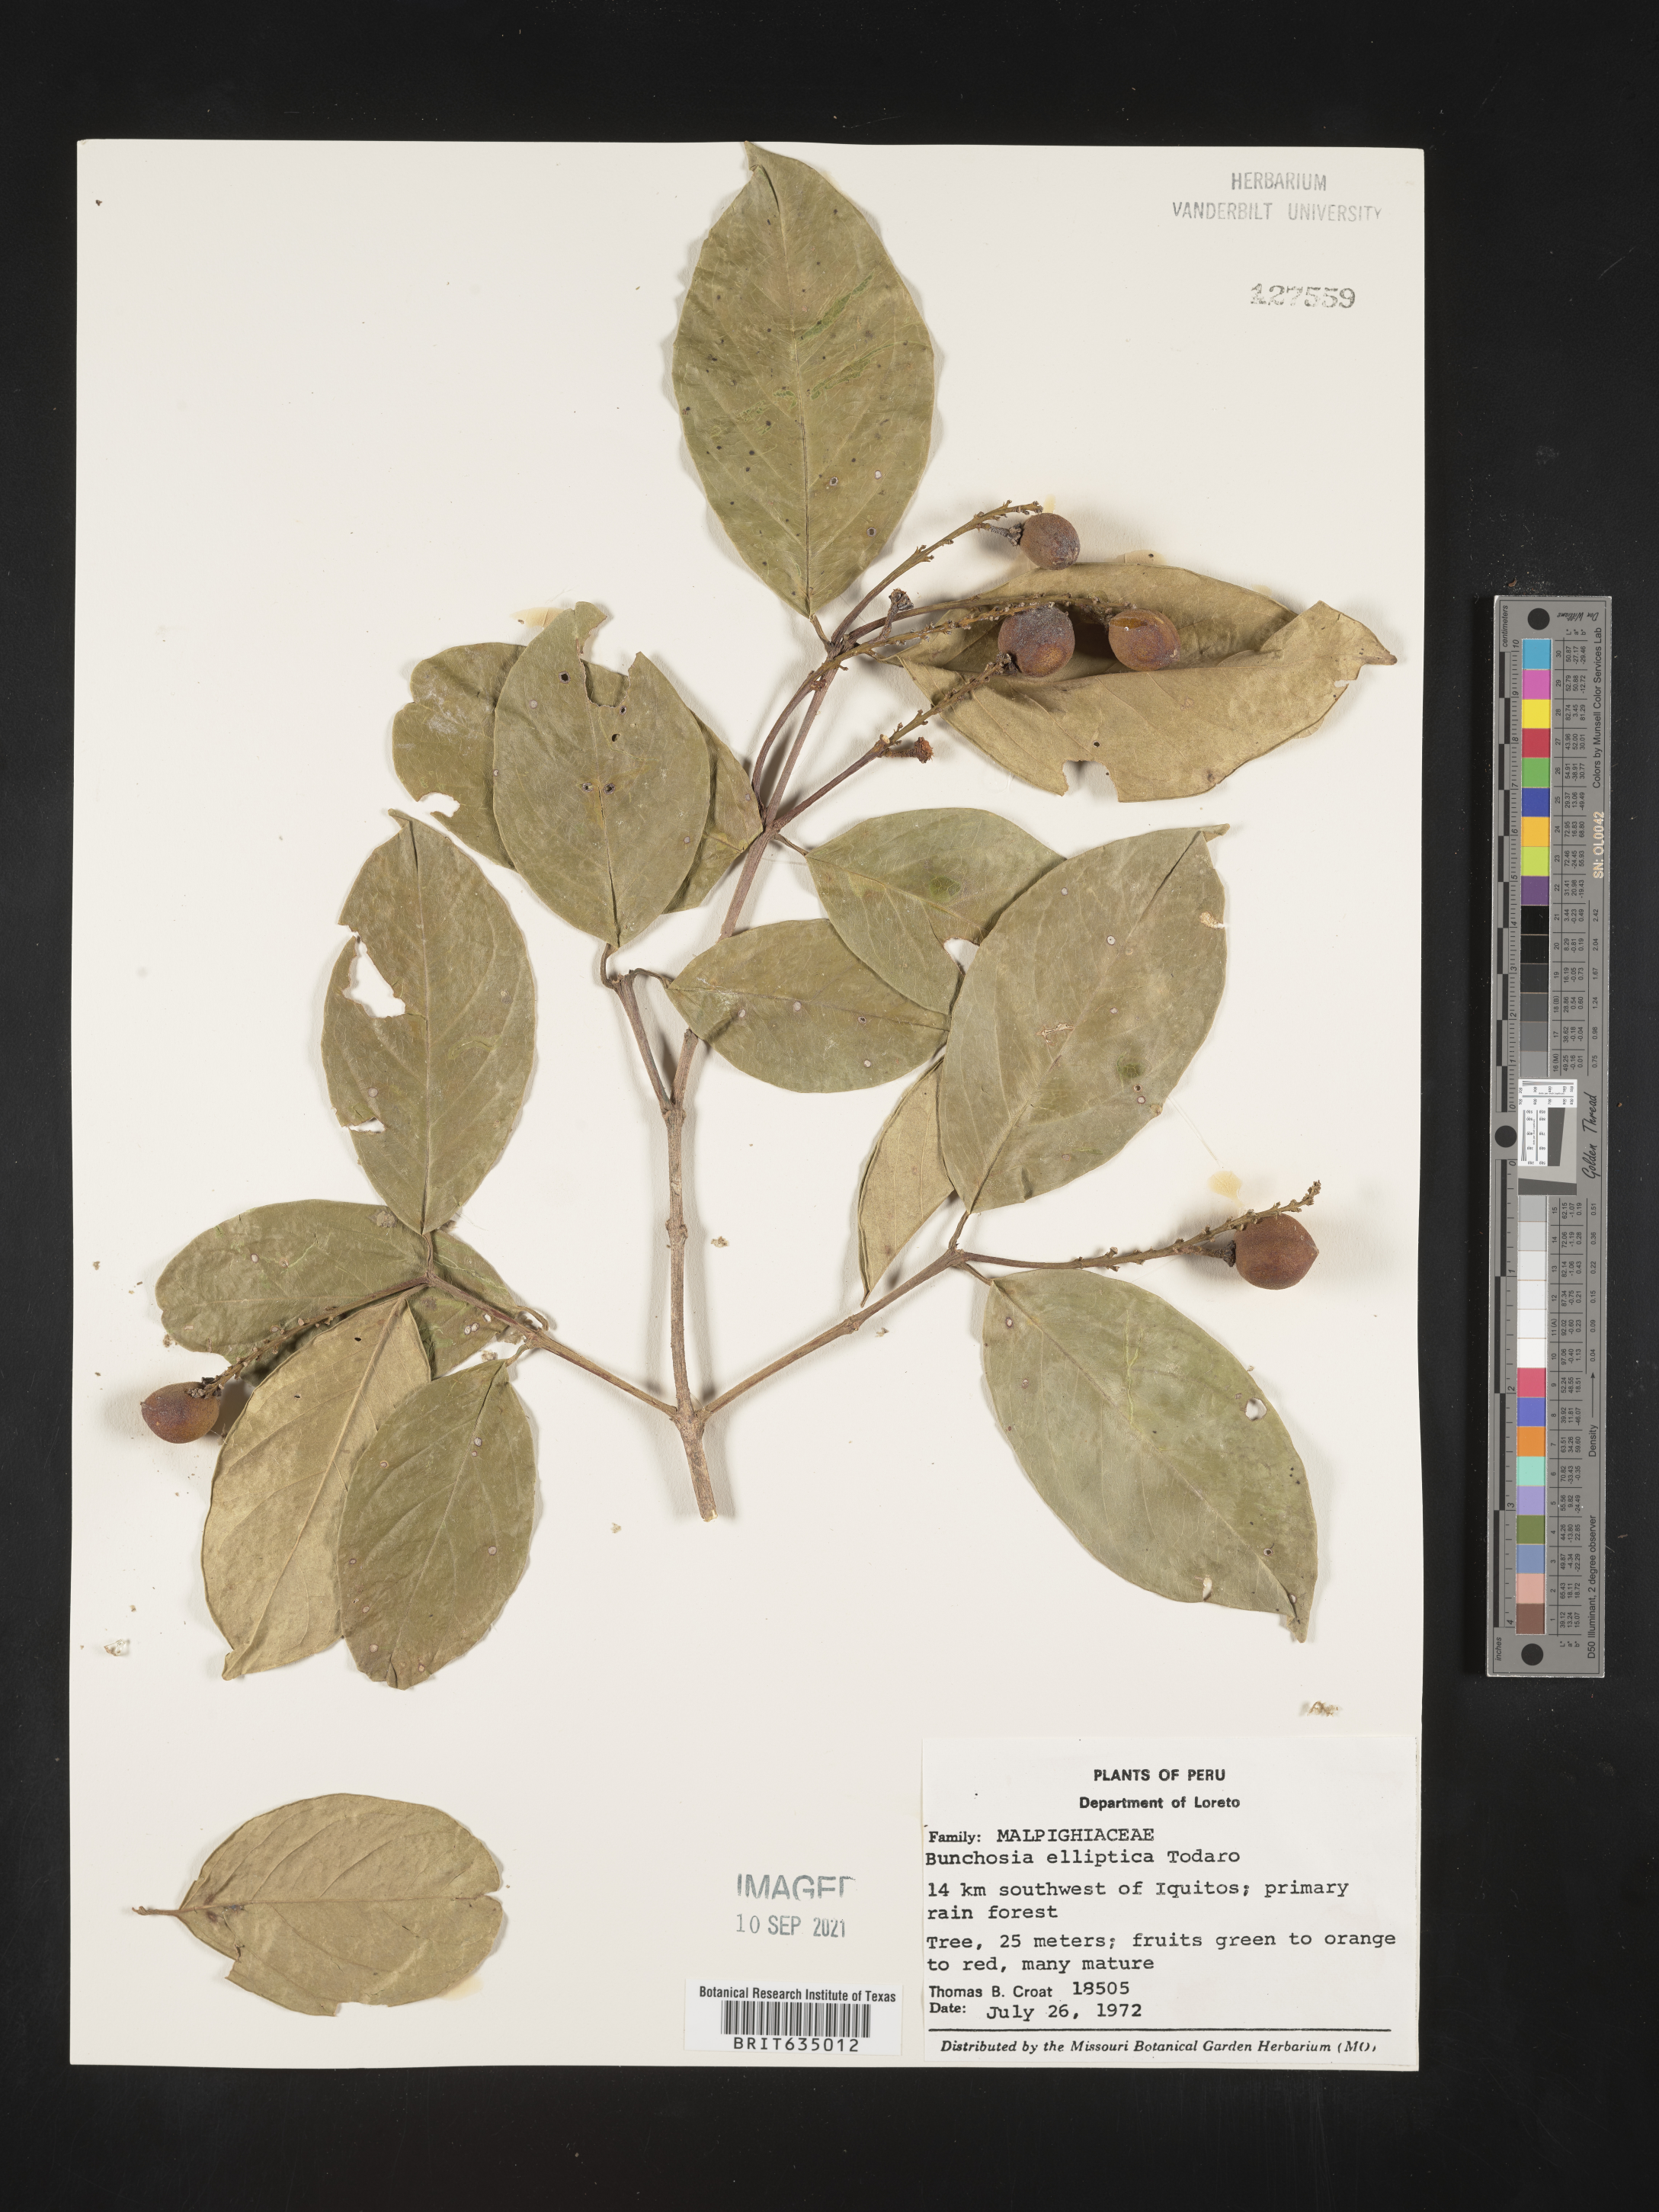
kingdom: Plantae
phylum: Tracheophyta
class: Magnoliopsida
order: Malpighiales
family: Malpighiaceae
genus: Bunchosia
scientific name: Bunchosia
